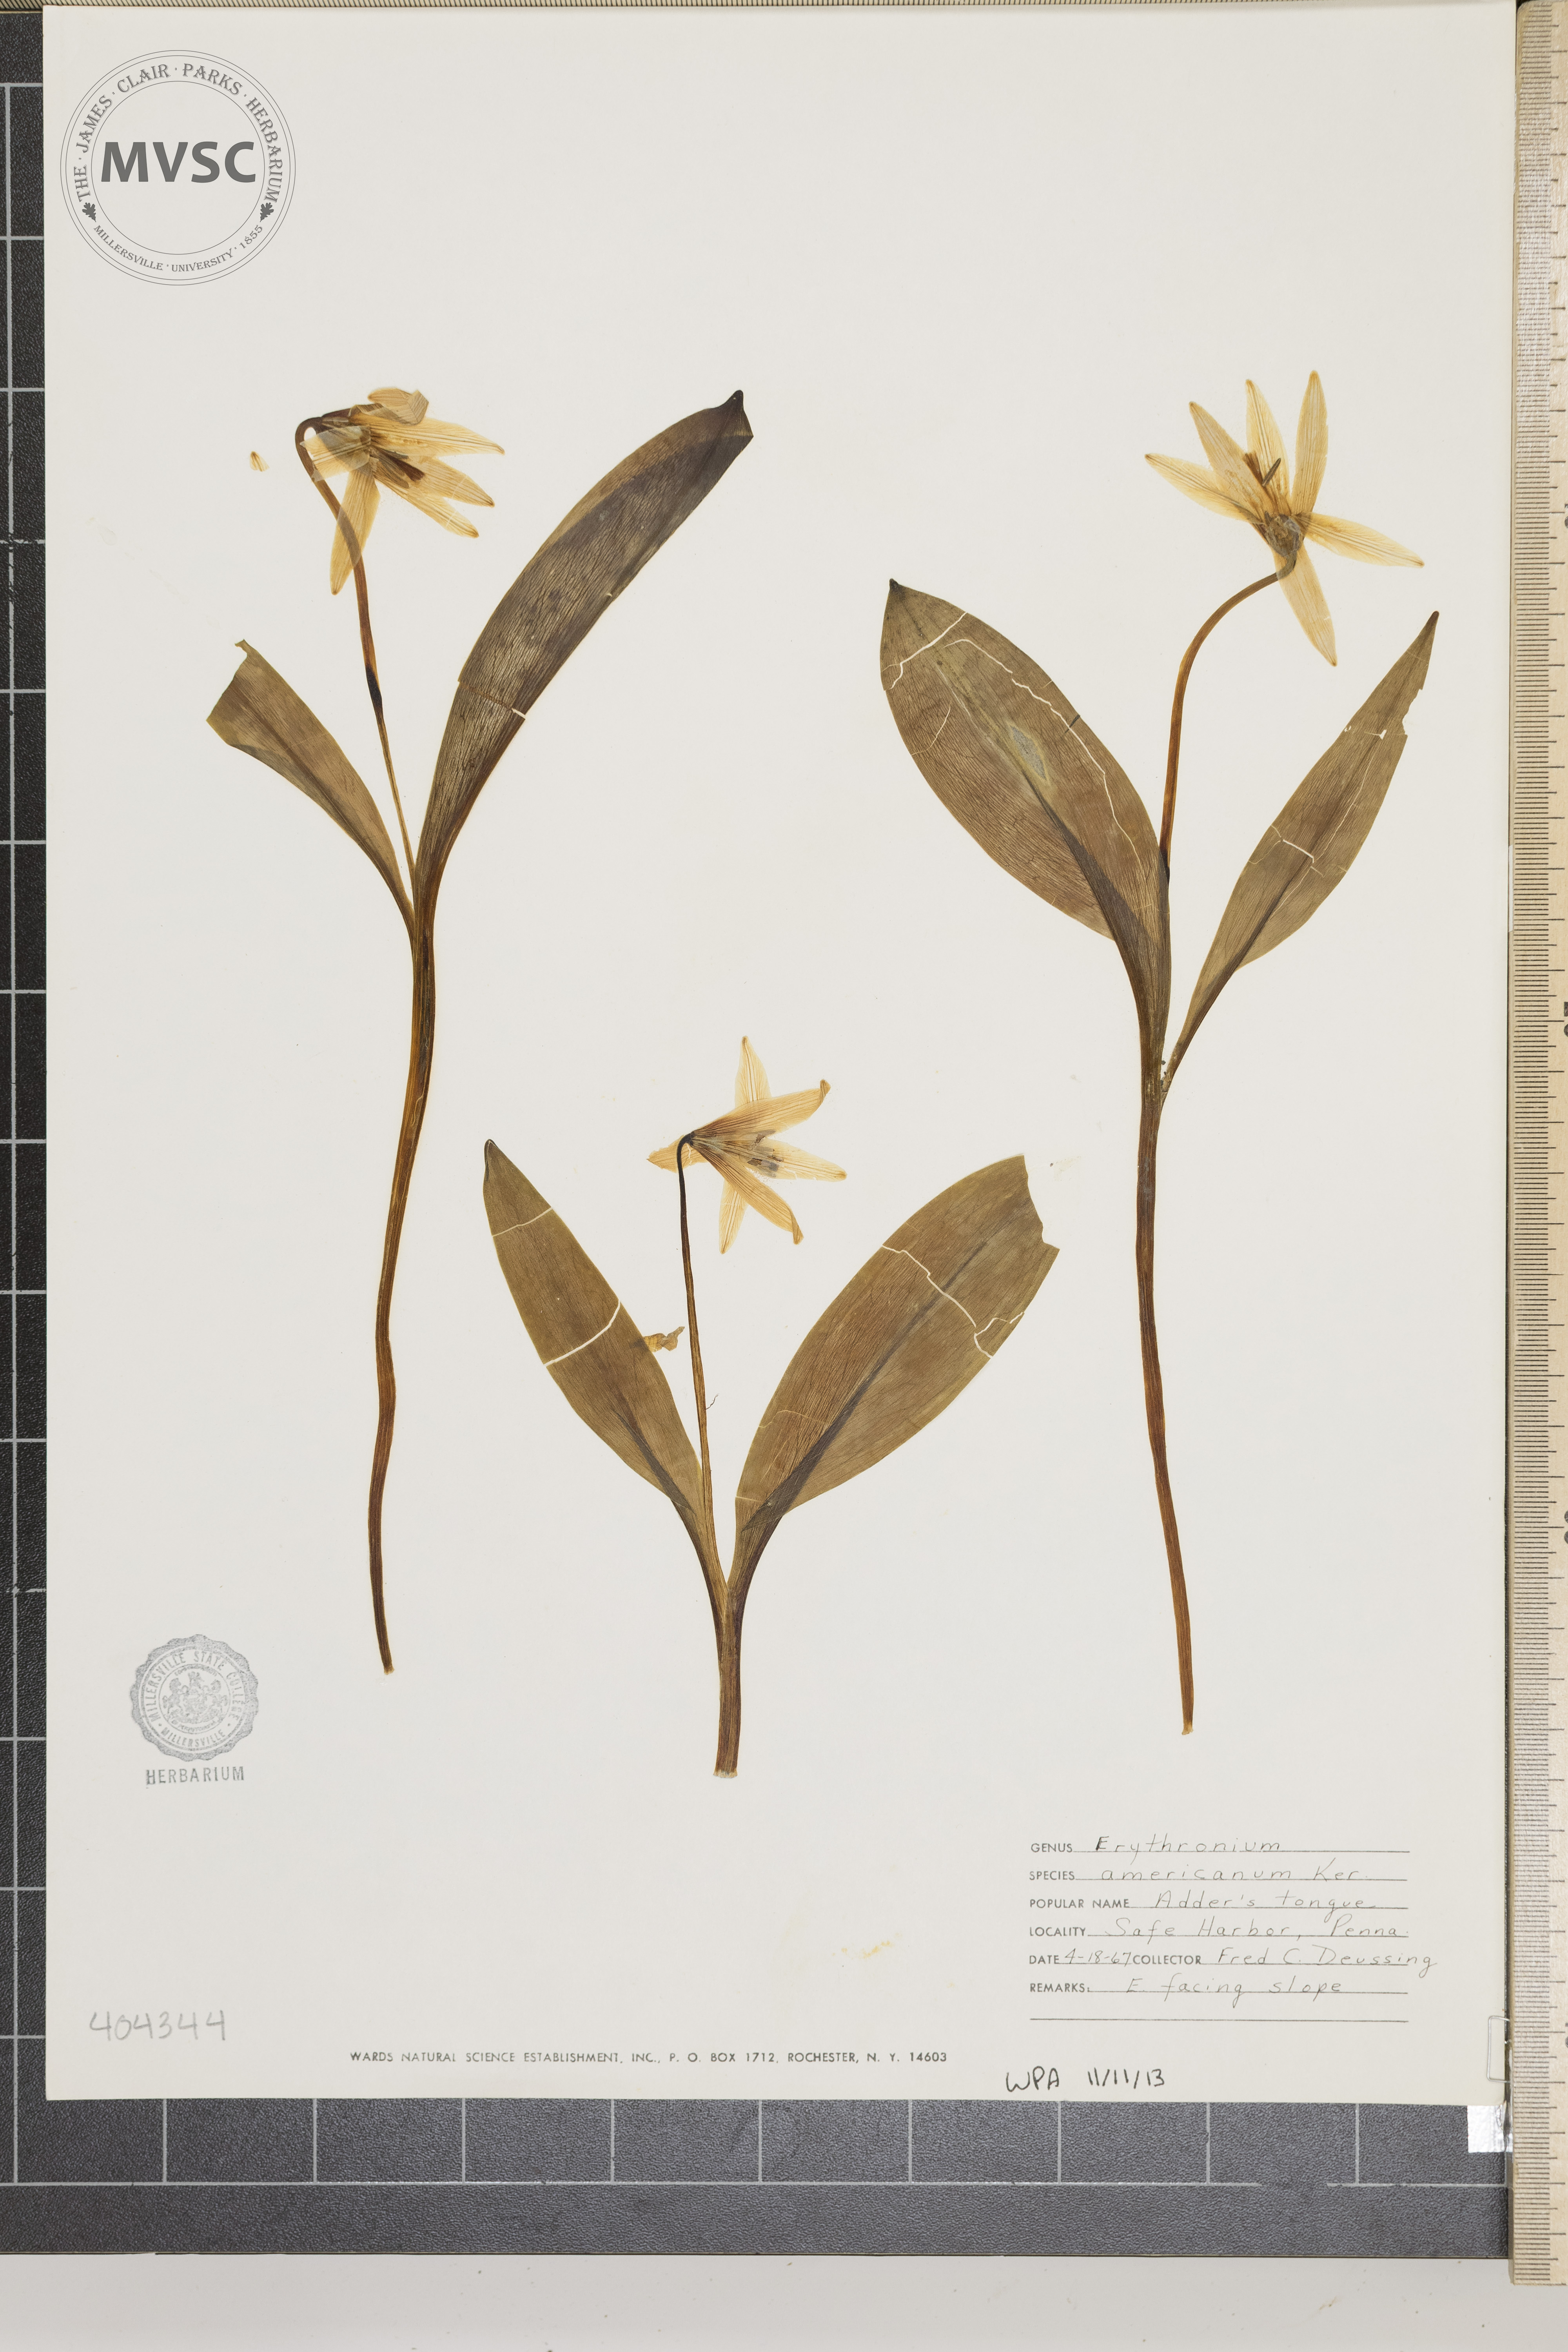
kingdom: Plantae
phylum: Tracheophyta
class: Liliopsida
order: Liliales
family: Liliaceae
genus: Erythronium
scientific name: Erythronium americanum
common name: Adder's Tongue
